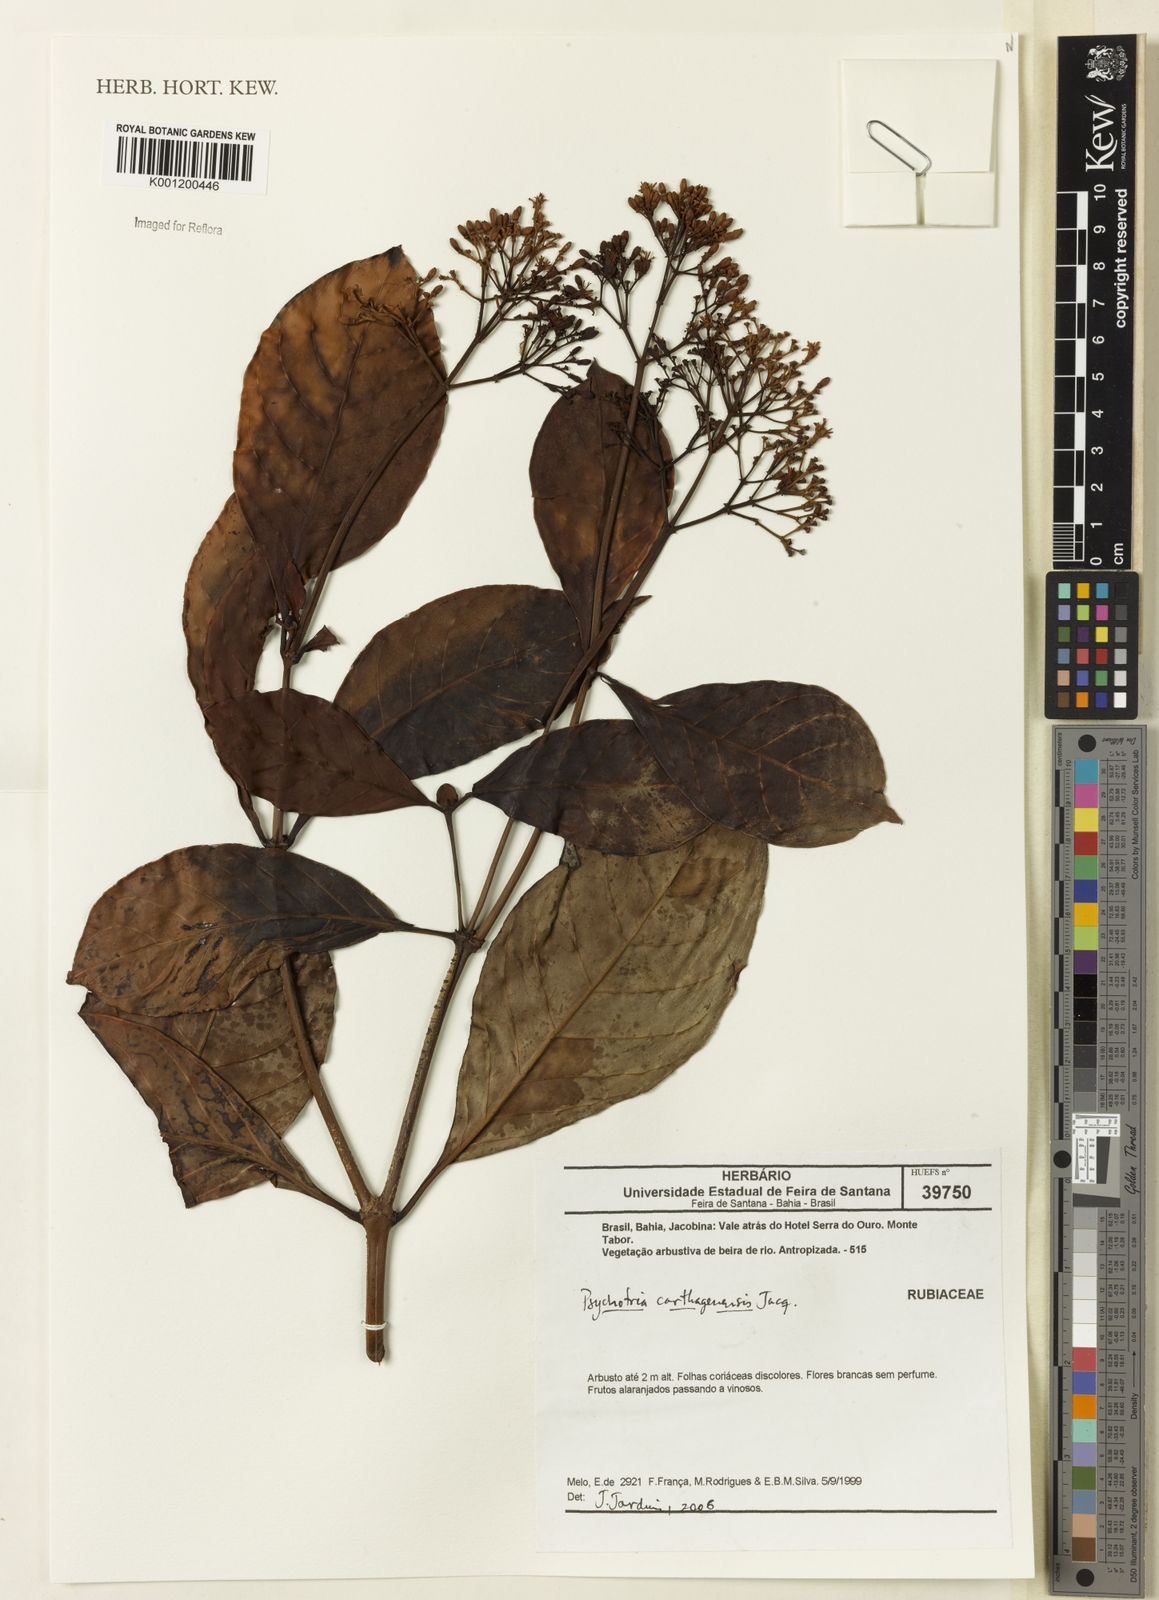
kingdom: Plantae
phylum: Tracheophyta
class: Magnoliopsida
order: Gentianales
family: Rubiaceae
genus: Psychotria
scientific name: Psychotria carthagenensis
